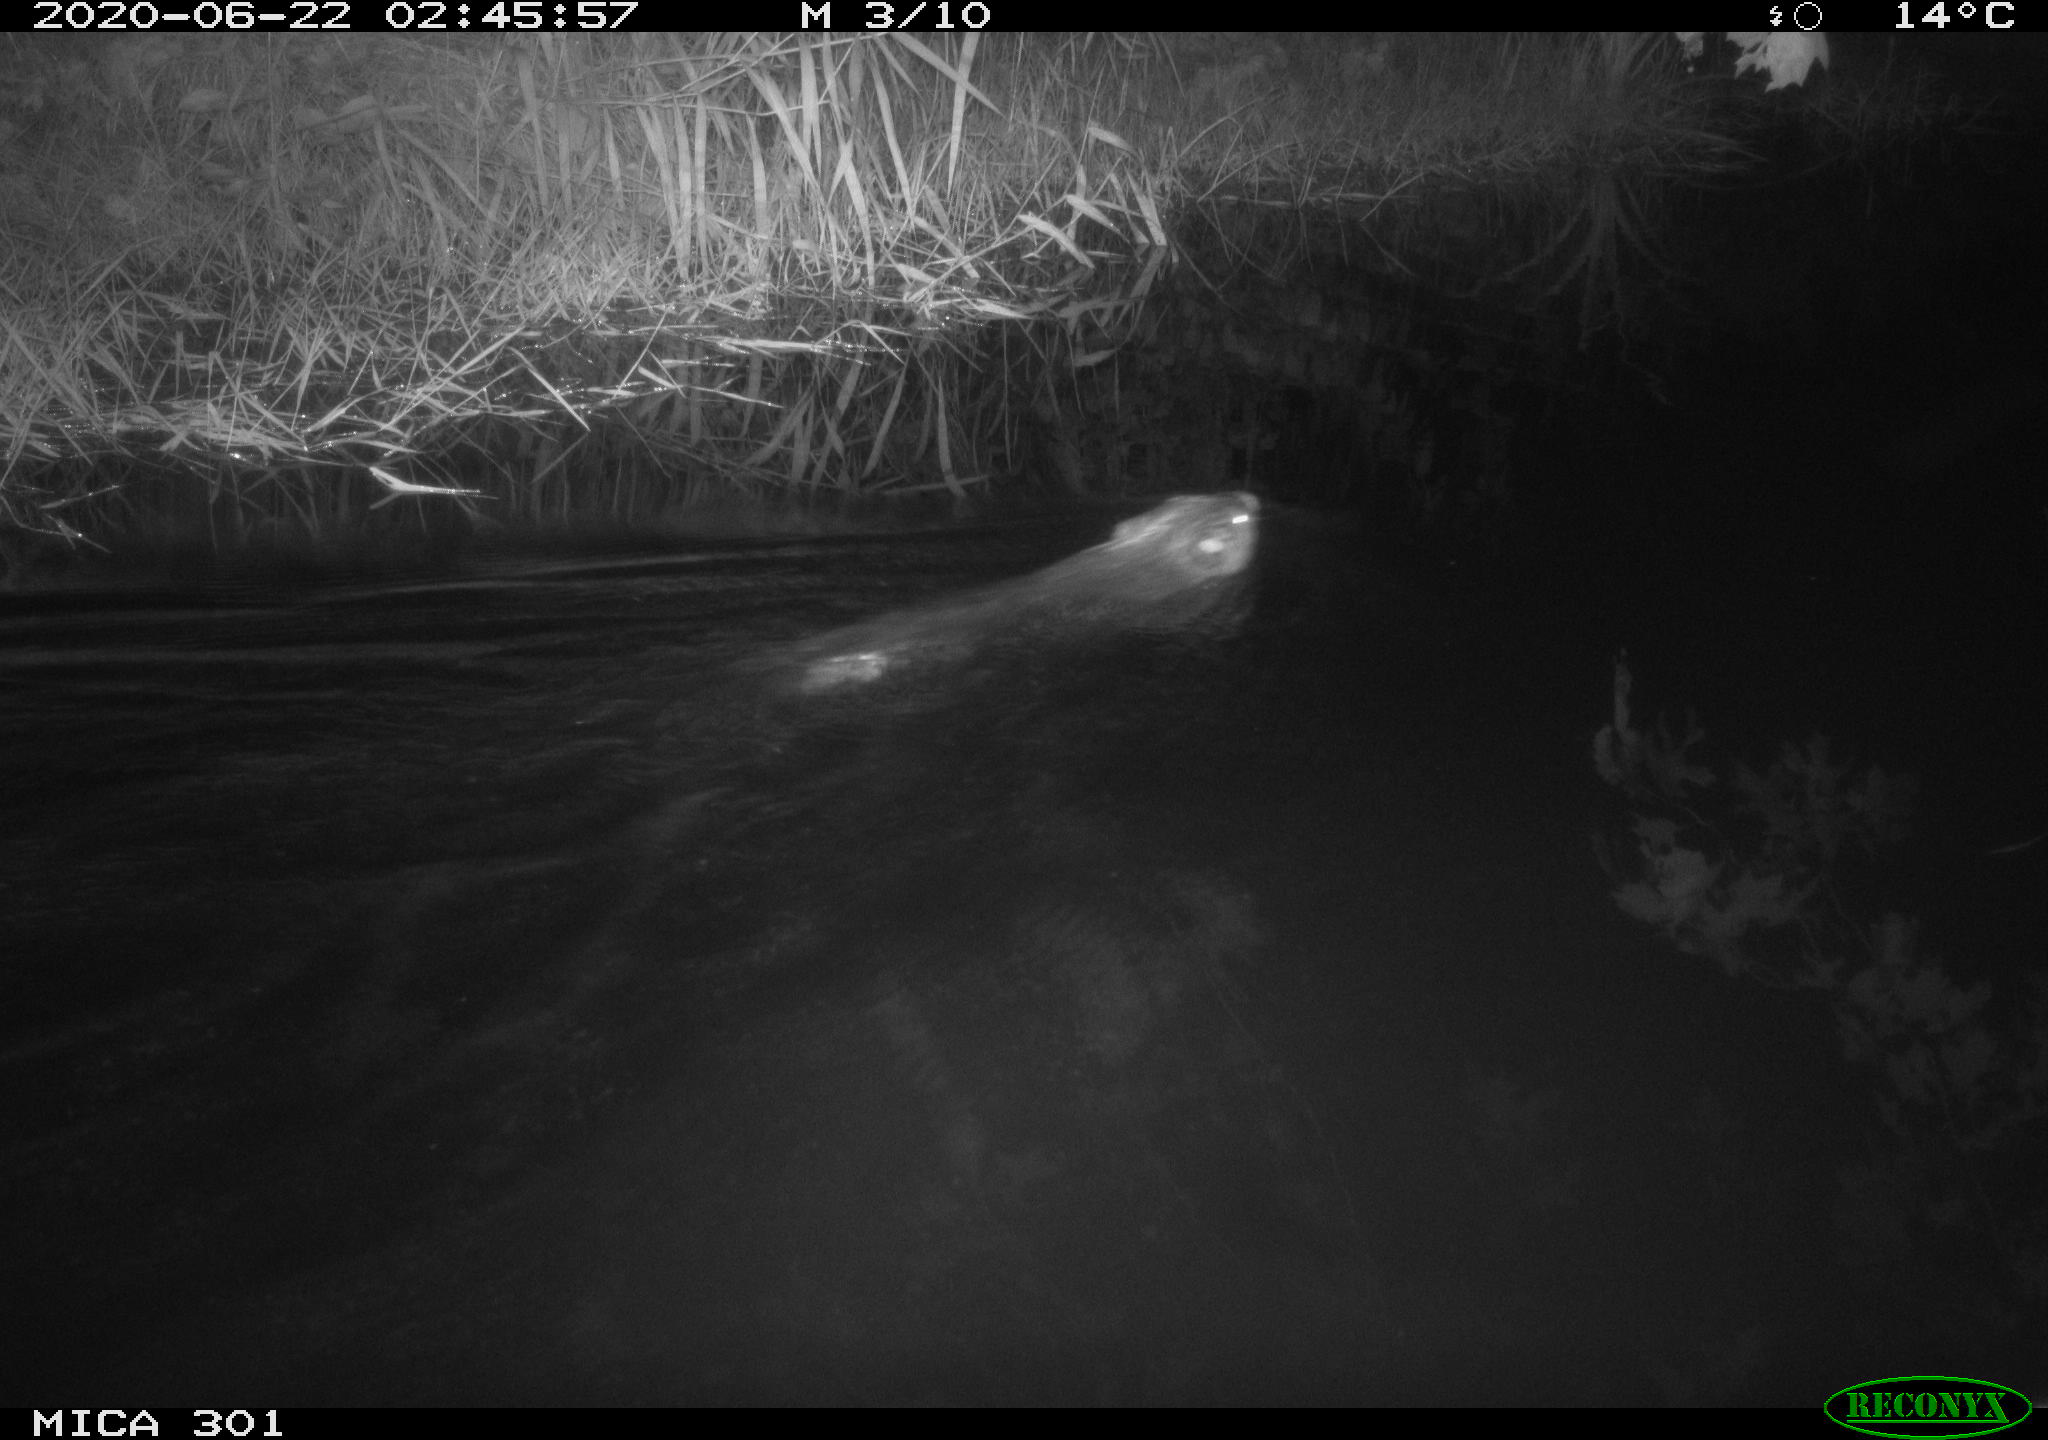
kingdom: Animalia
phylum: Chordata
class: Mammalia
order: Rodentia
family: Castoridae
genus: Castor
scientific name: Castor fiber
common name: Eurasian beaver
